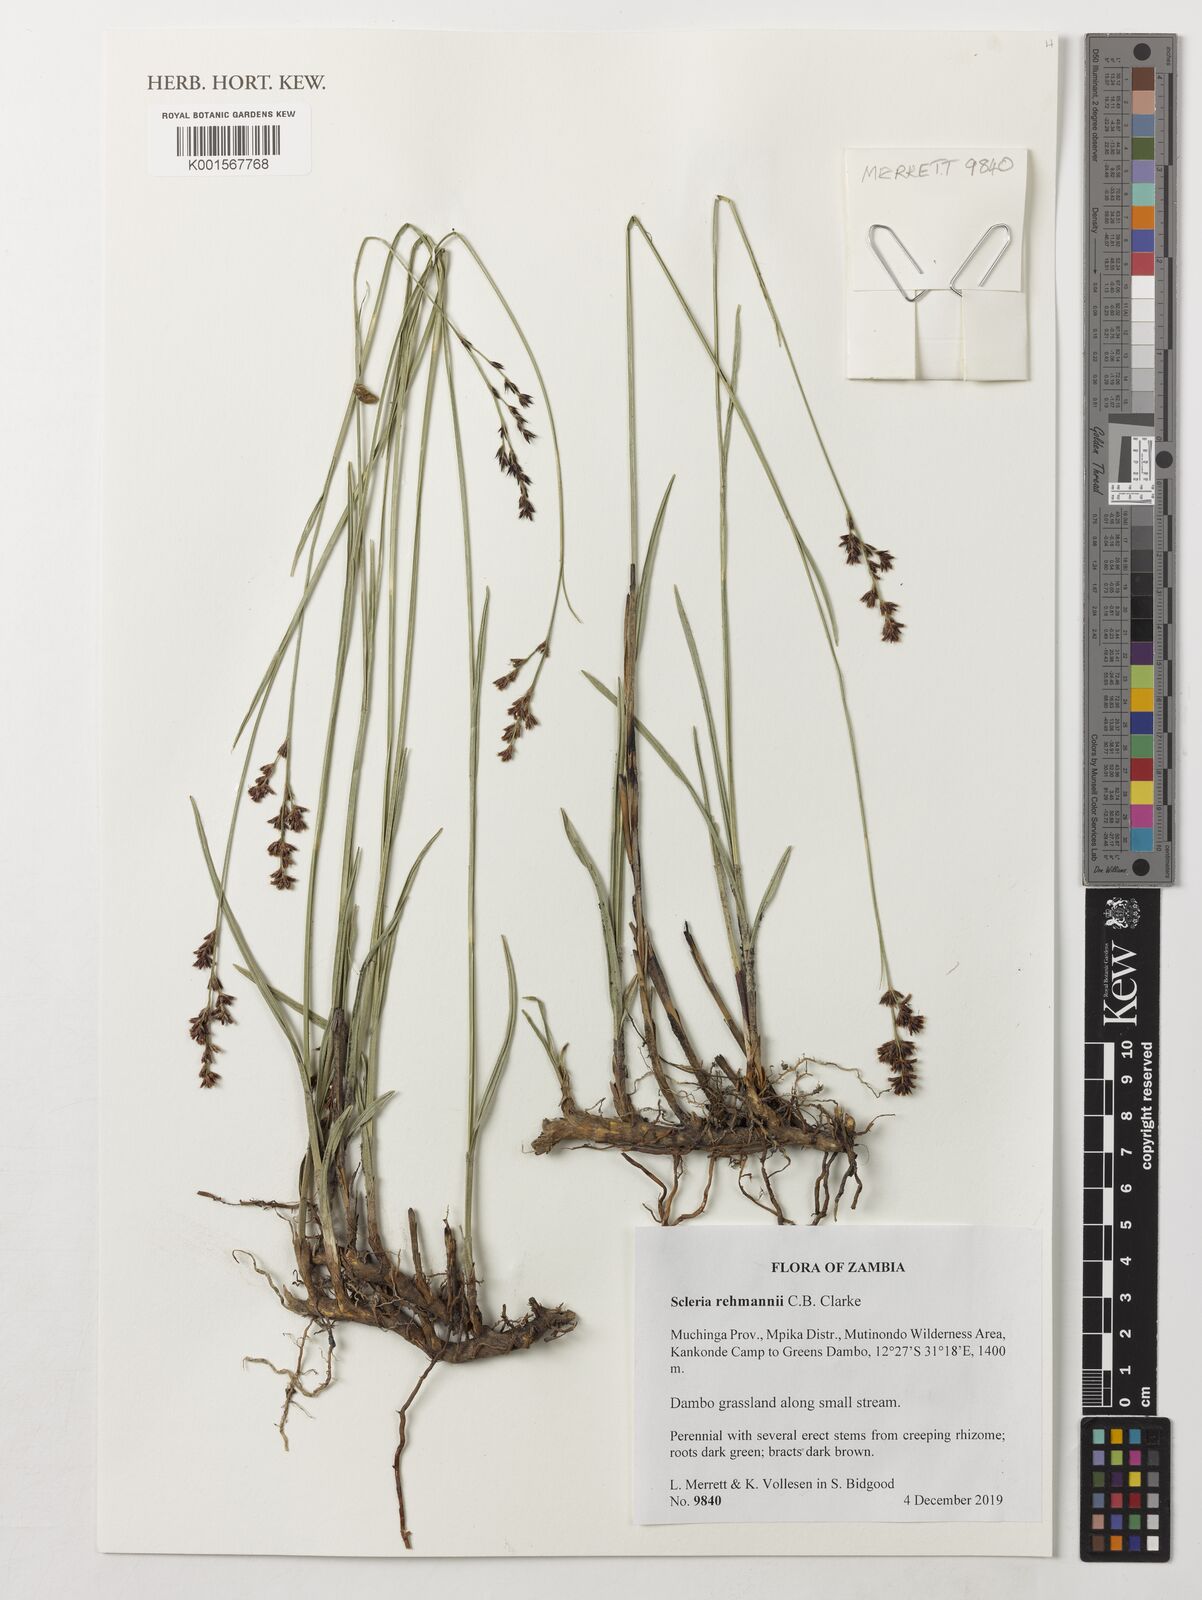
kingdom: Plantae
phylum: Tracheophyta
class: Liliopsida
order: Poales
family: Cyperaceae
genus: Scleria
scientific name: Scleria rehmannii
